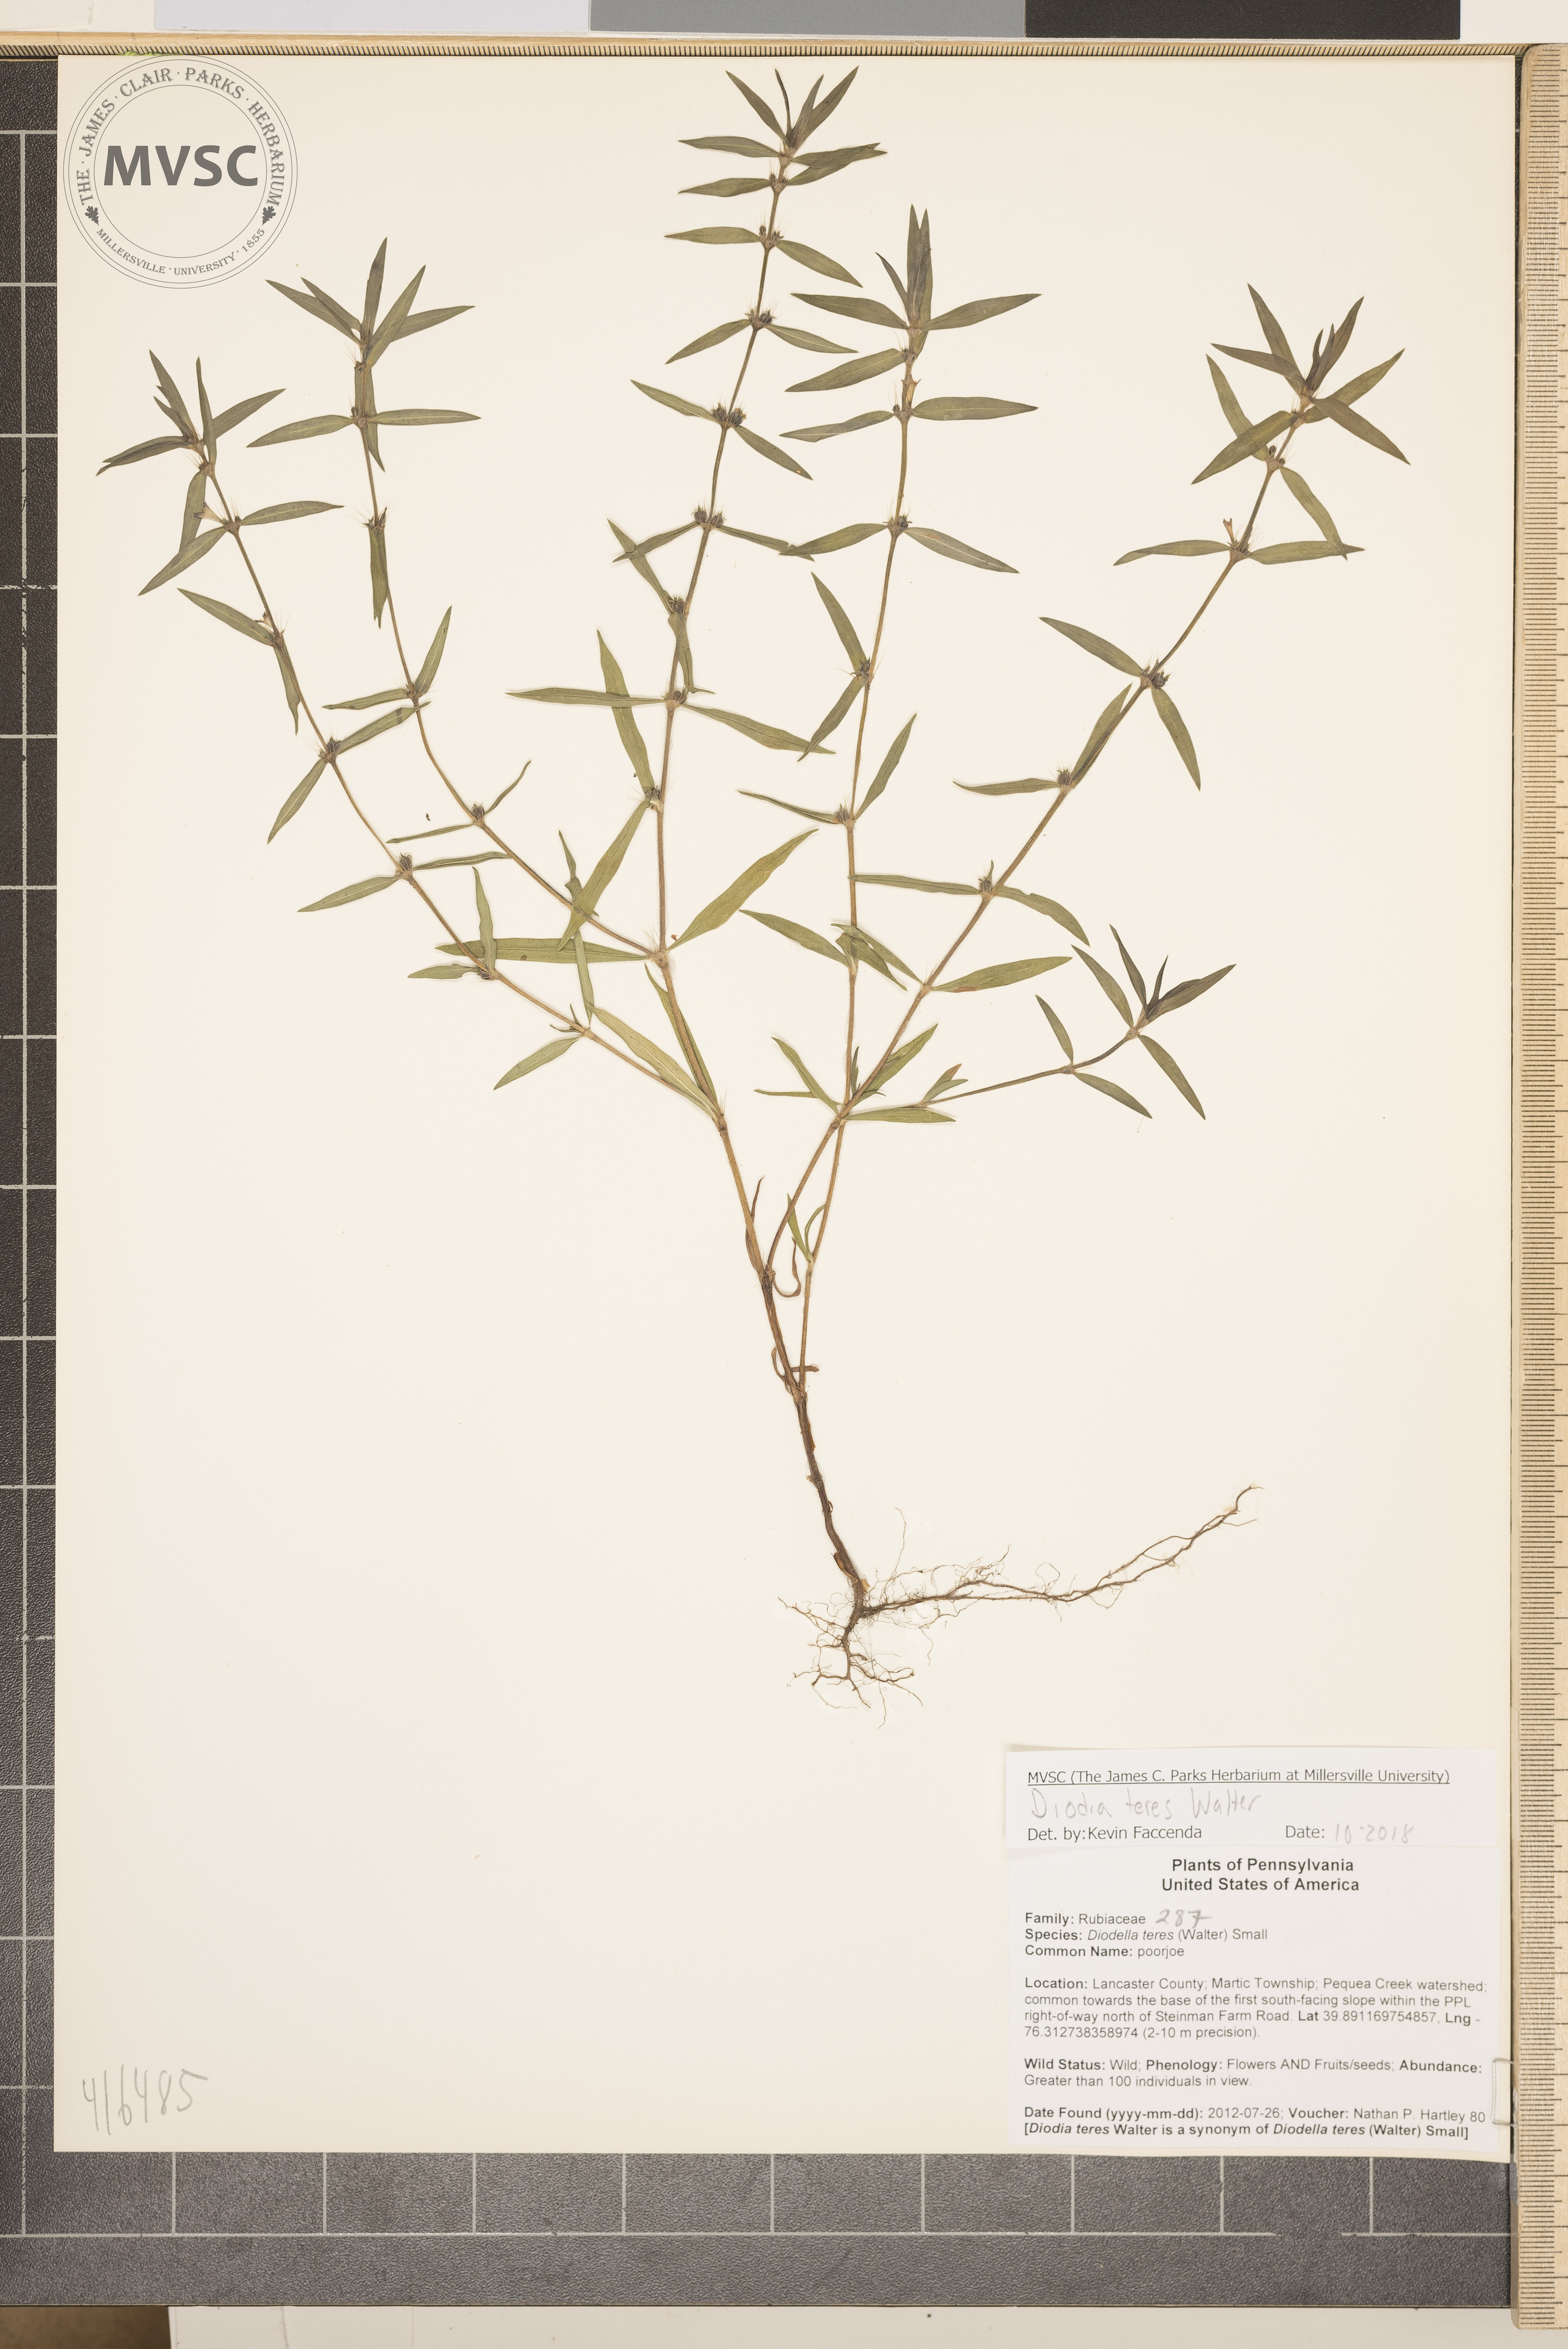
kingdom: Plantae
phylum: Tracheophyta
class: Magnoliopsida
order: Gentianales
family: Rubiaceae
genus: Hexasepalum
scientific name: Hexasepalum teres
